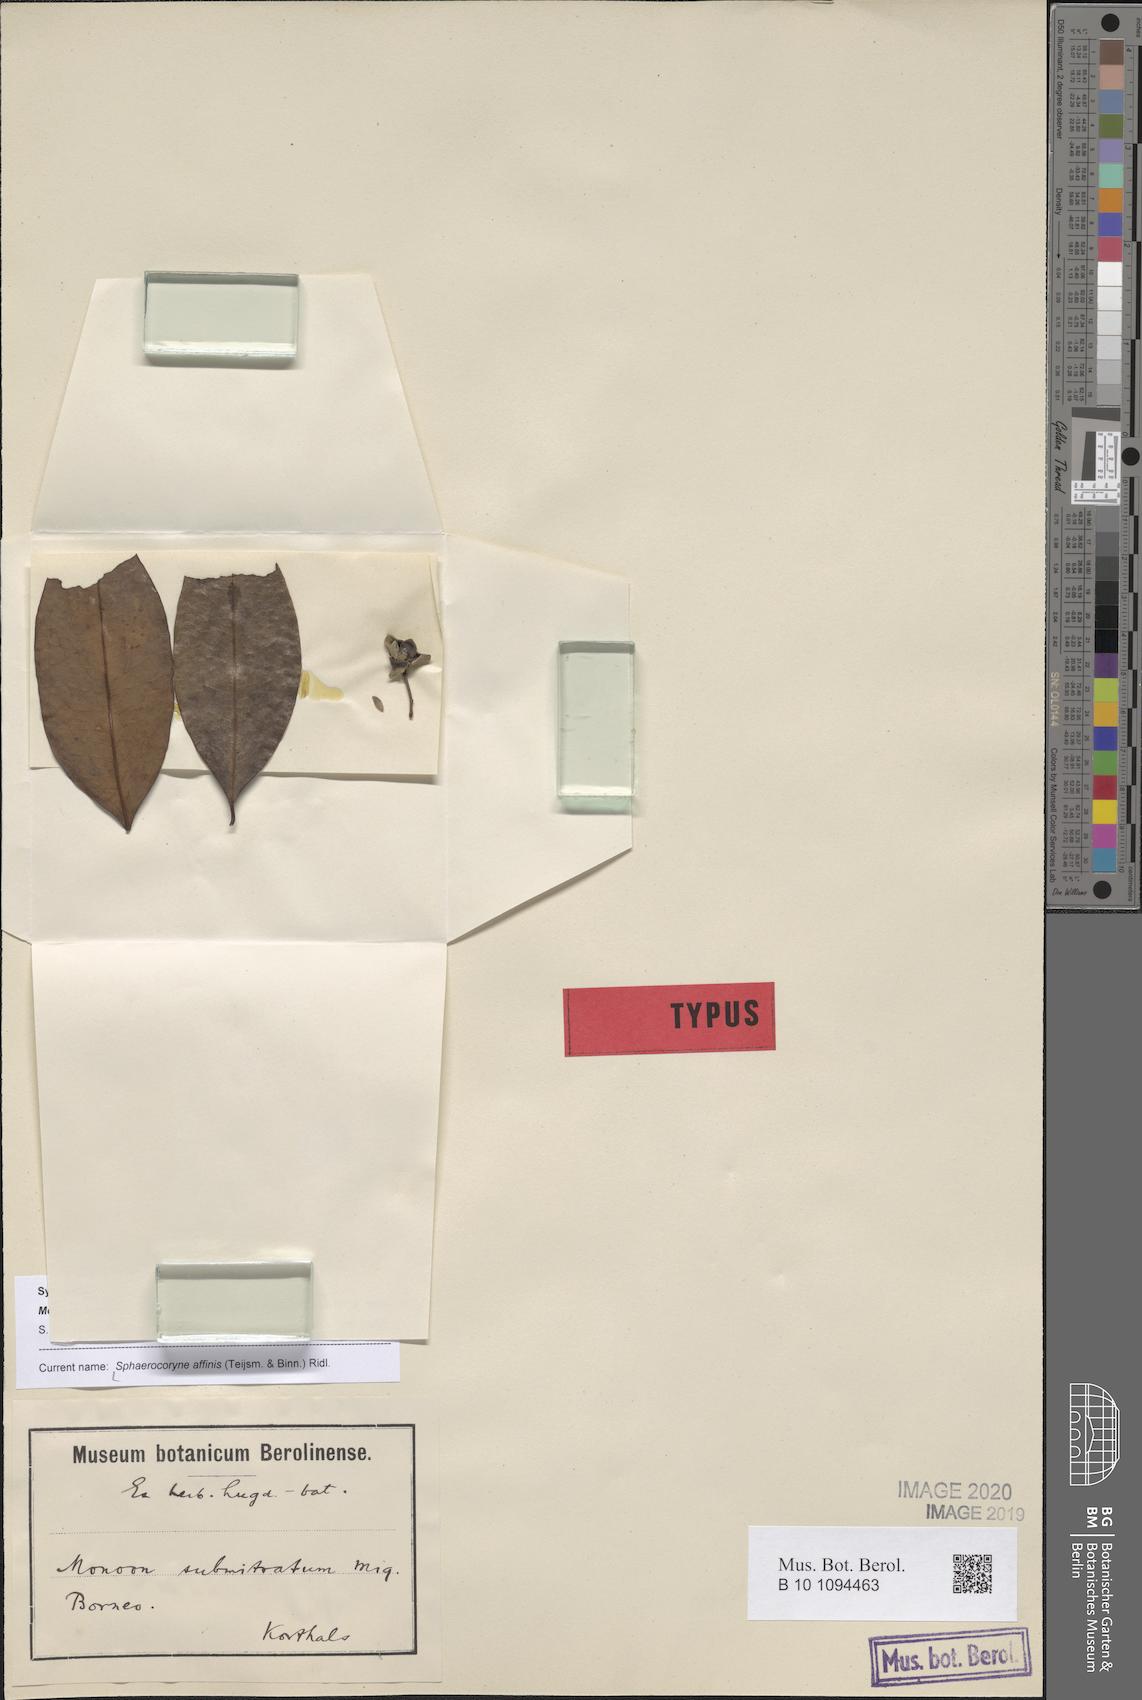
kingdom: Plantae
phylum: Tracheophyta
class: Magnoliopsida
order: Magnoliales
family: Annonaceae
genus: Sphaerocoryne
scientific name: Sphaerocoryne affinis
